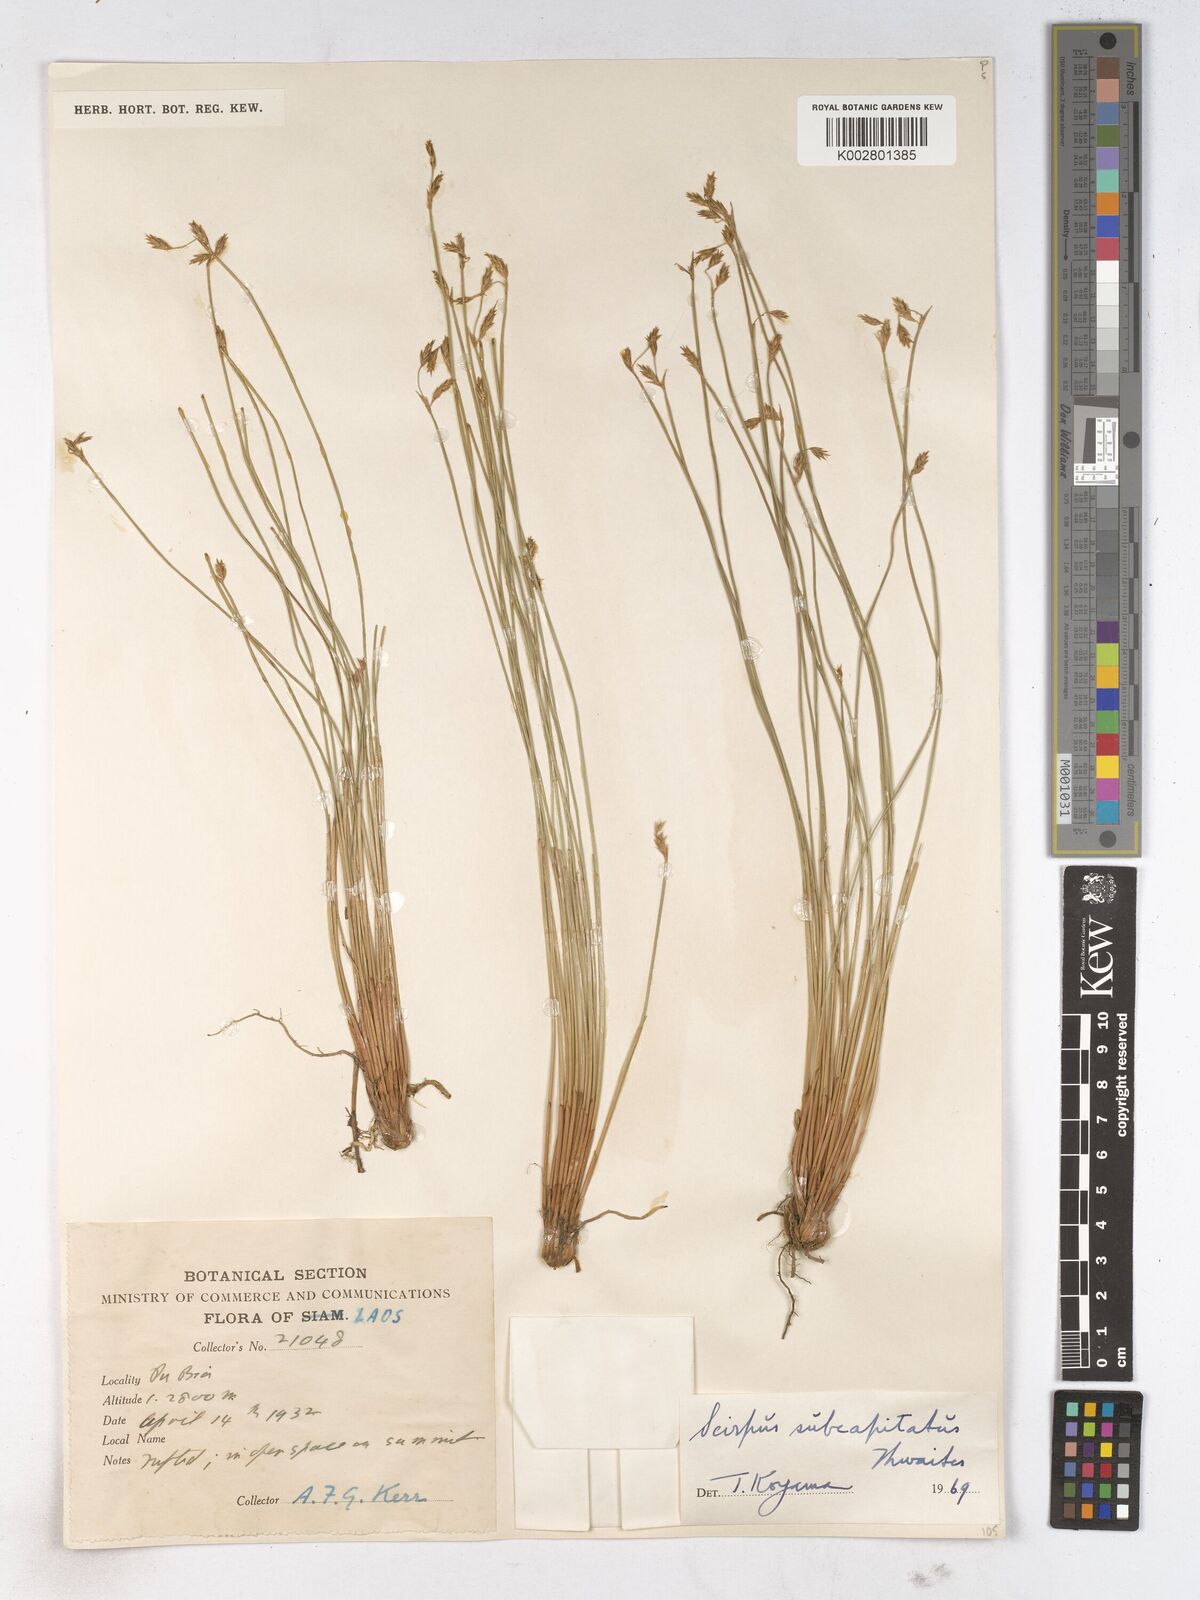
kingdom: Plantae
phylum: Tracheophyta
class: Liliopsida
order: Poales
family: Cyperaceae
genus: Trichophorum
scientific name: Trichophorum subcapitatum
